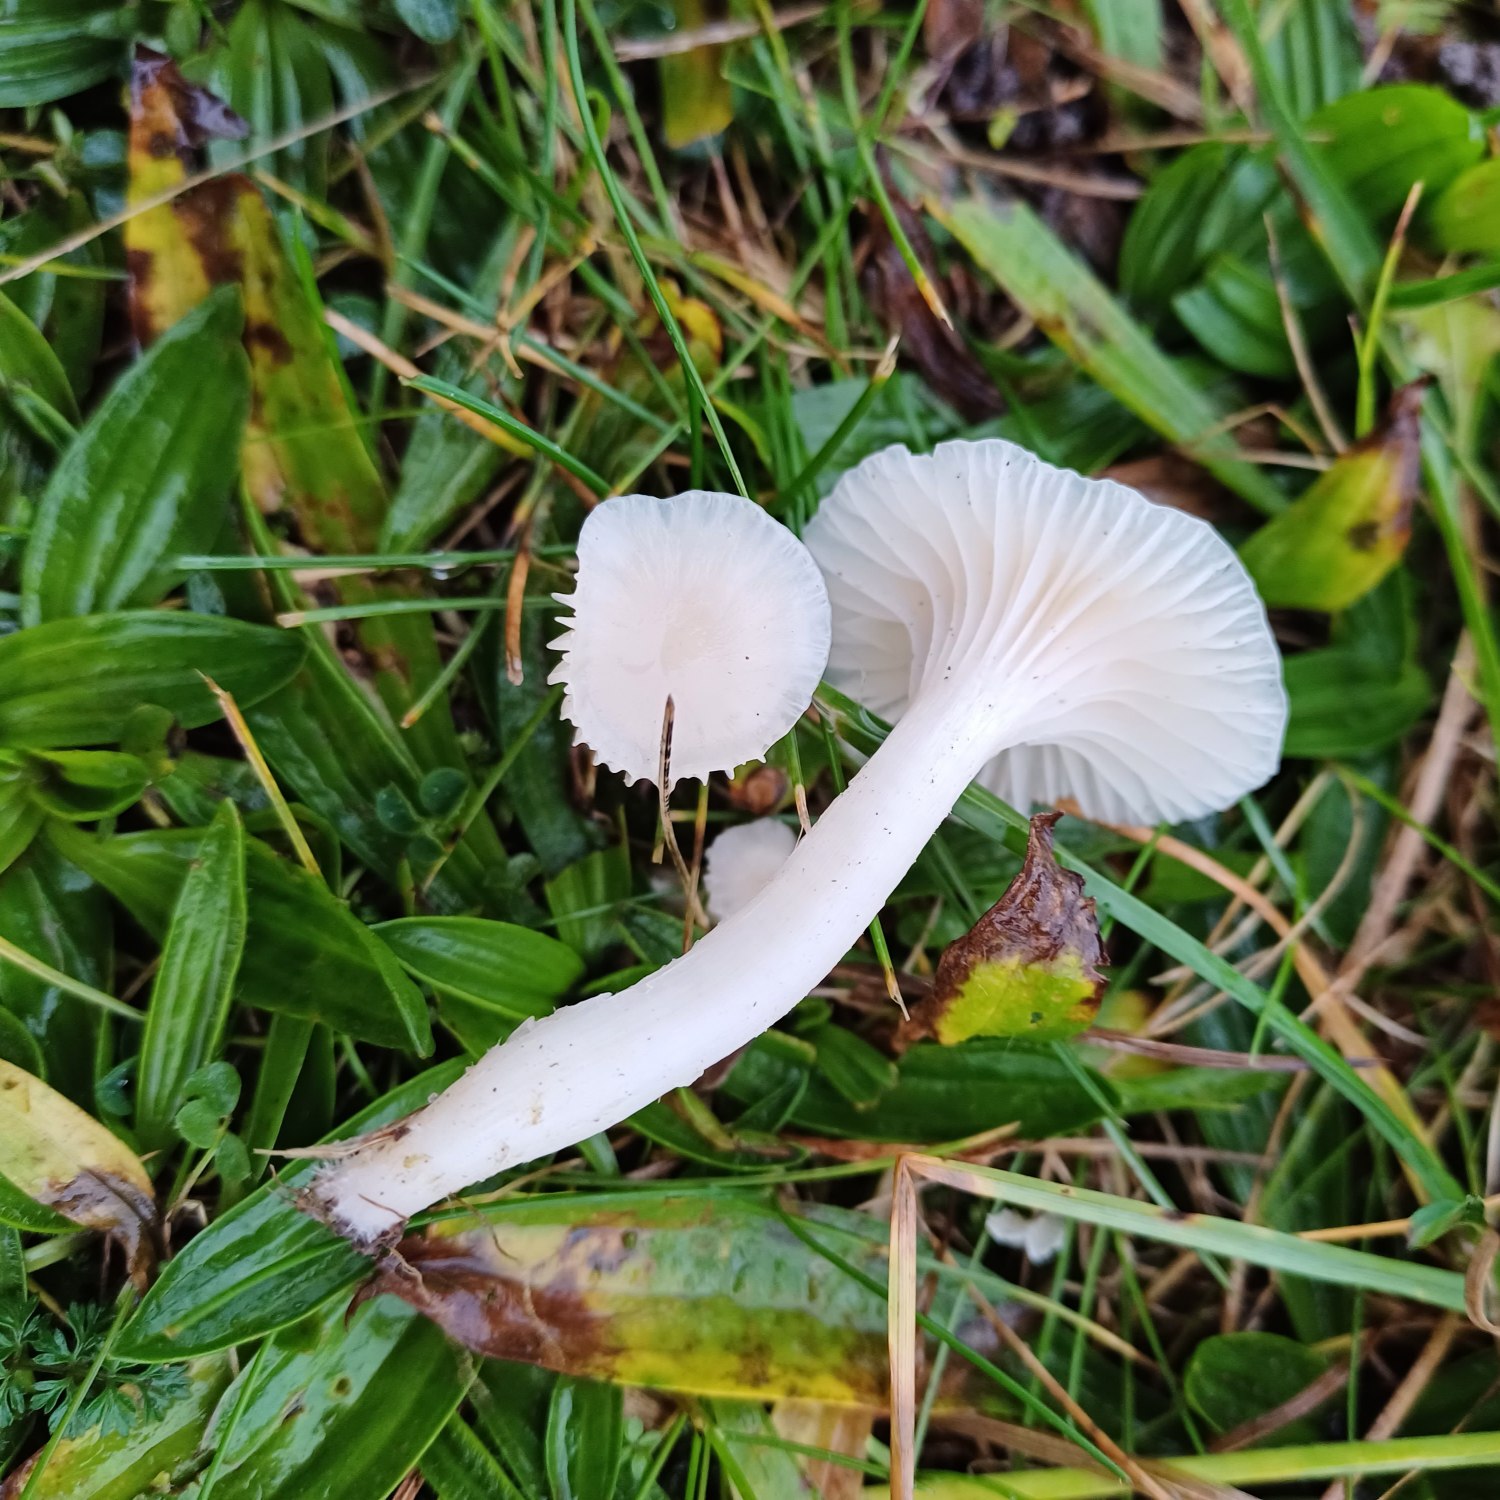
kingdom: Fungi
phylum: Basidiomycota
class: Agaricomycetes
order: Agaricales
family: Hygrophoraceae
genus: Cuphophyllus
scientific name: Cuphophyllus virgineus
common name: Snehvid vokshat
